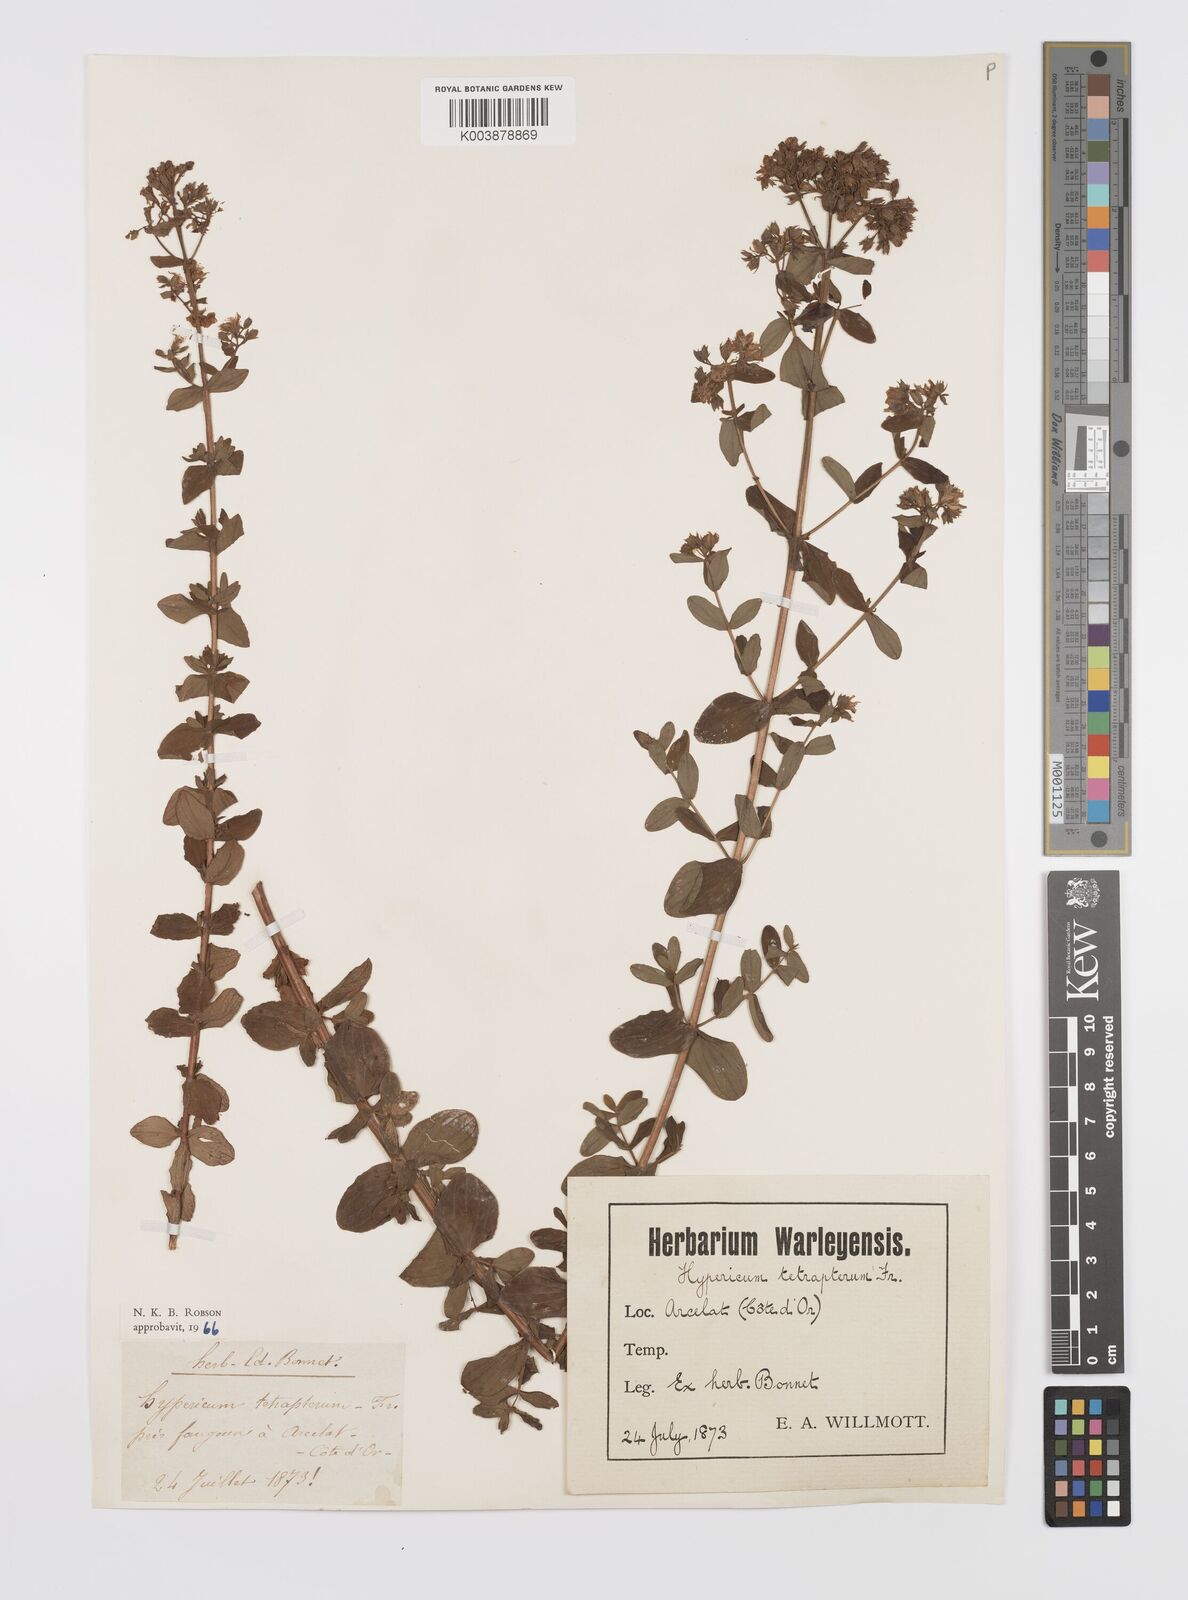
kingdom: Plantae
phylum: Tracheophyta
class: Magnoliopsida
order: Malpighiales
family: Hypericaceae
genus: Hypericum
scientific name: Hypericum tetrapterum
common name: Square-stalked st. john's-wort
